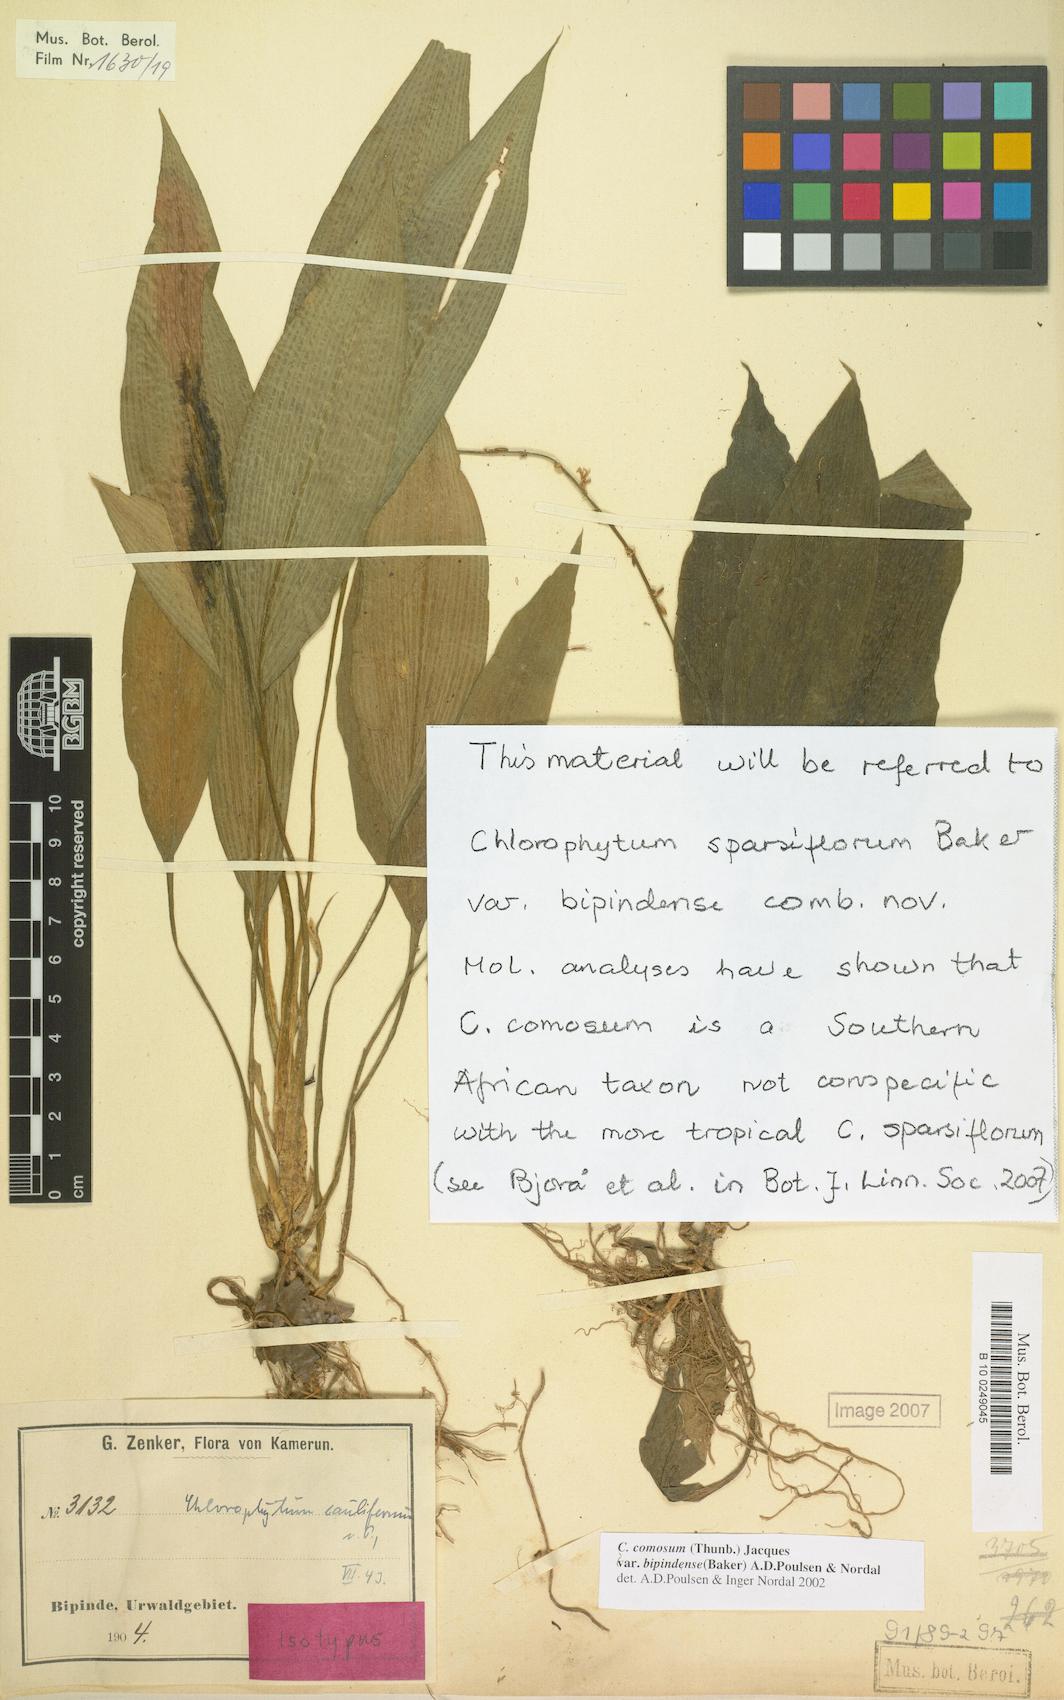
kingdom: Plantae
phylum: Tracheophyta
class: Liliopsida
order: Asparagales
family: Asparagaceae
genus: Chlorophytum
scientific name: Chlorophytum sparsiflorum
